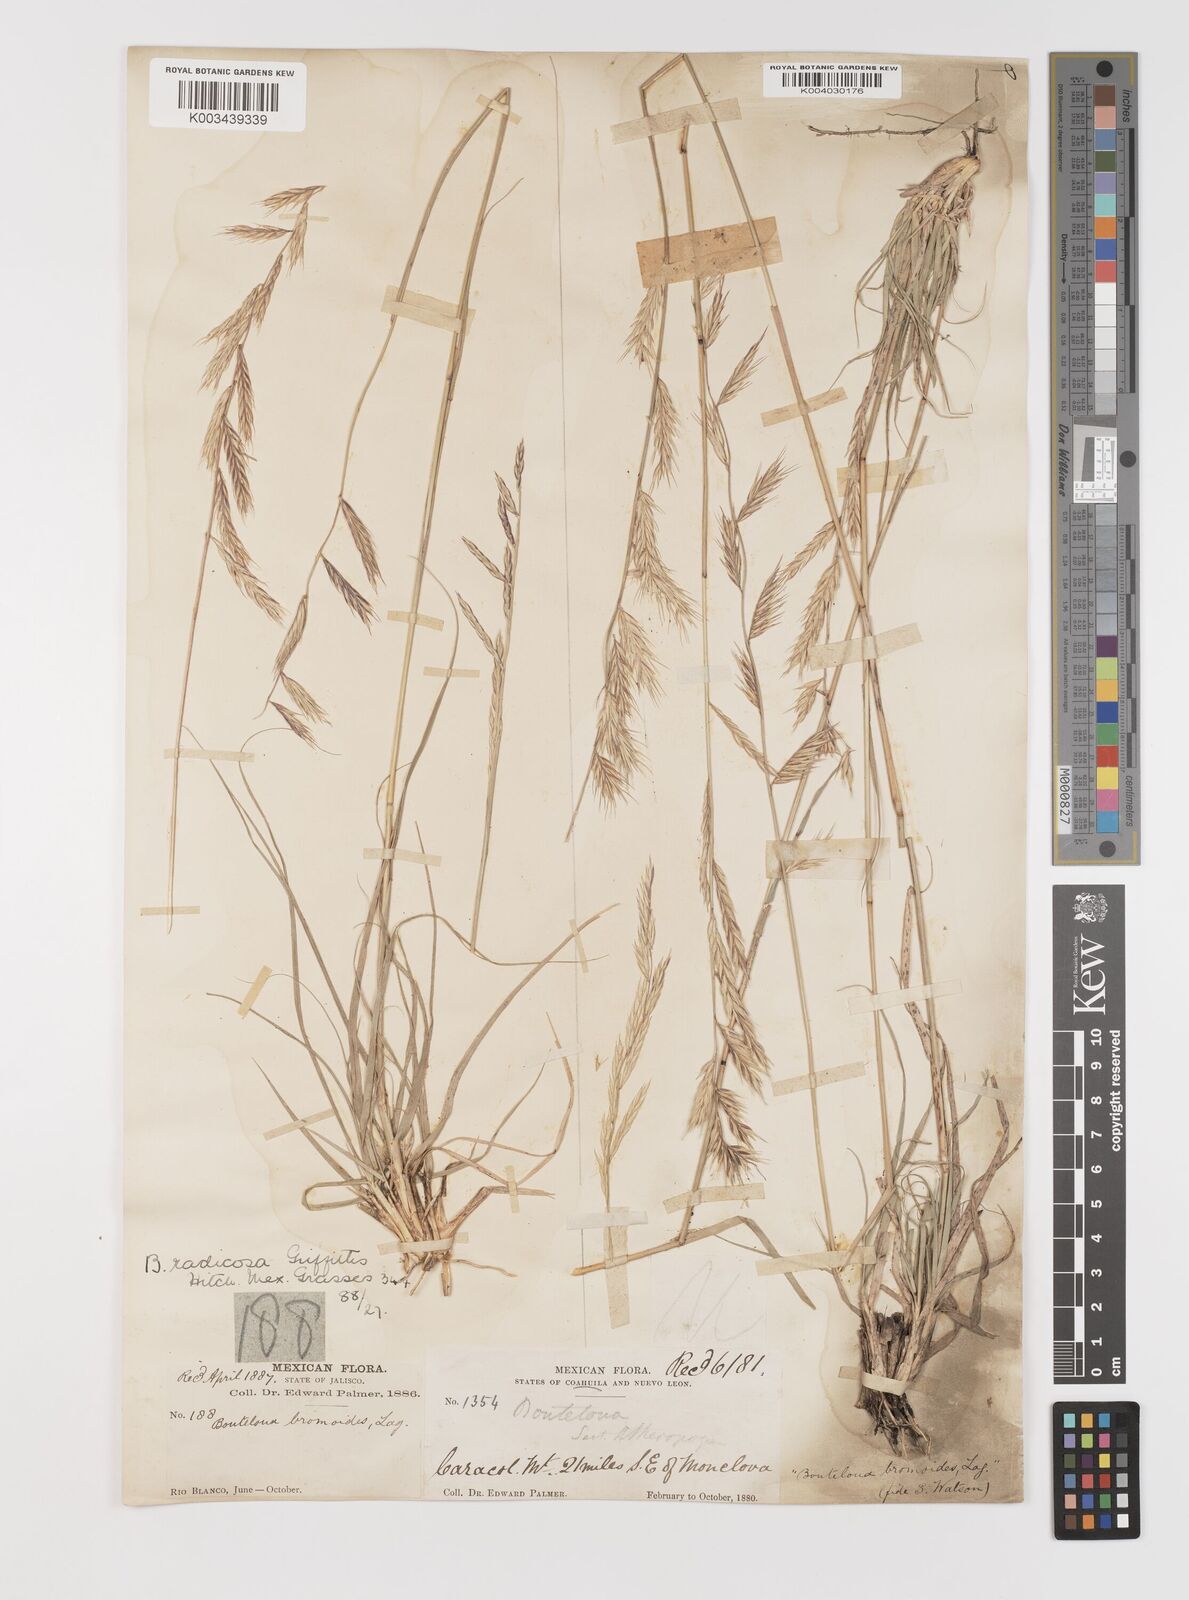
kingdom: Plantae
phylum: Tracheophyta
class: Liliopsida
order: Poales
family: Poaceae
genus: Bouteloua
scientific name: Bouteloua radicosa
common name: Purple grama
